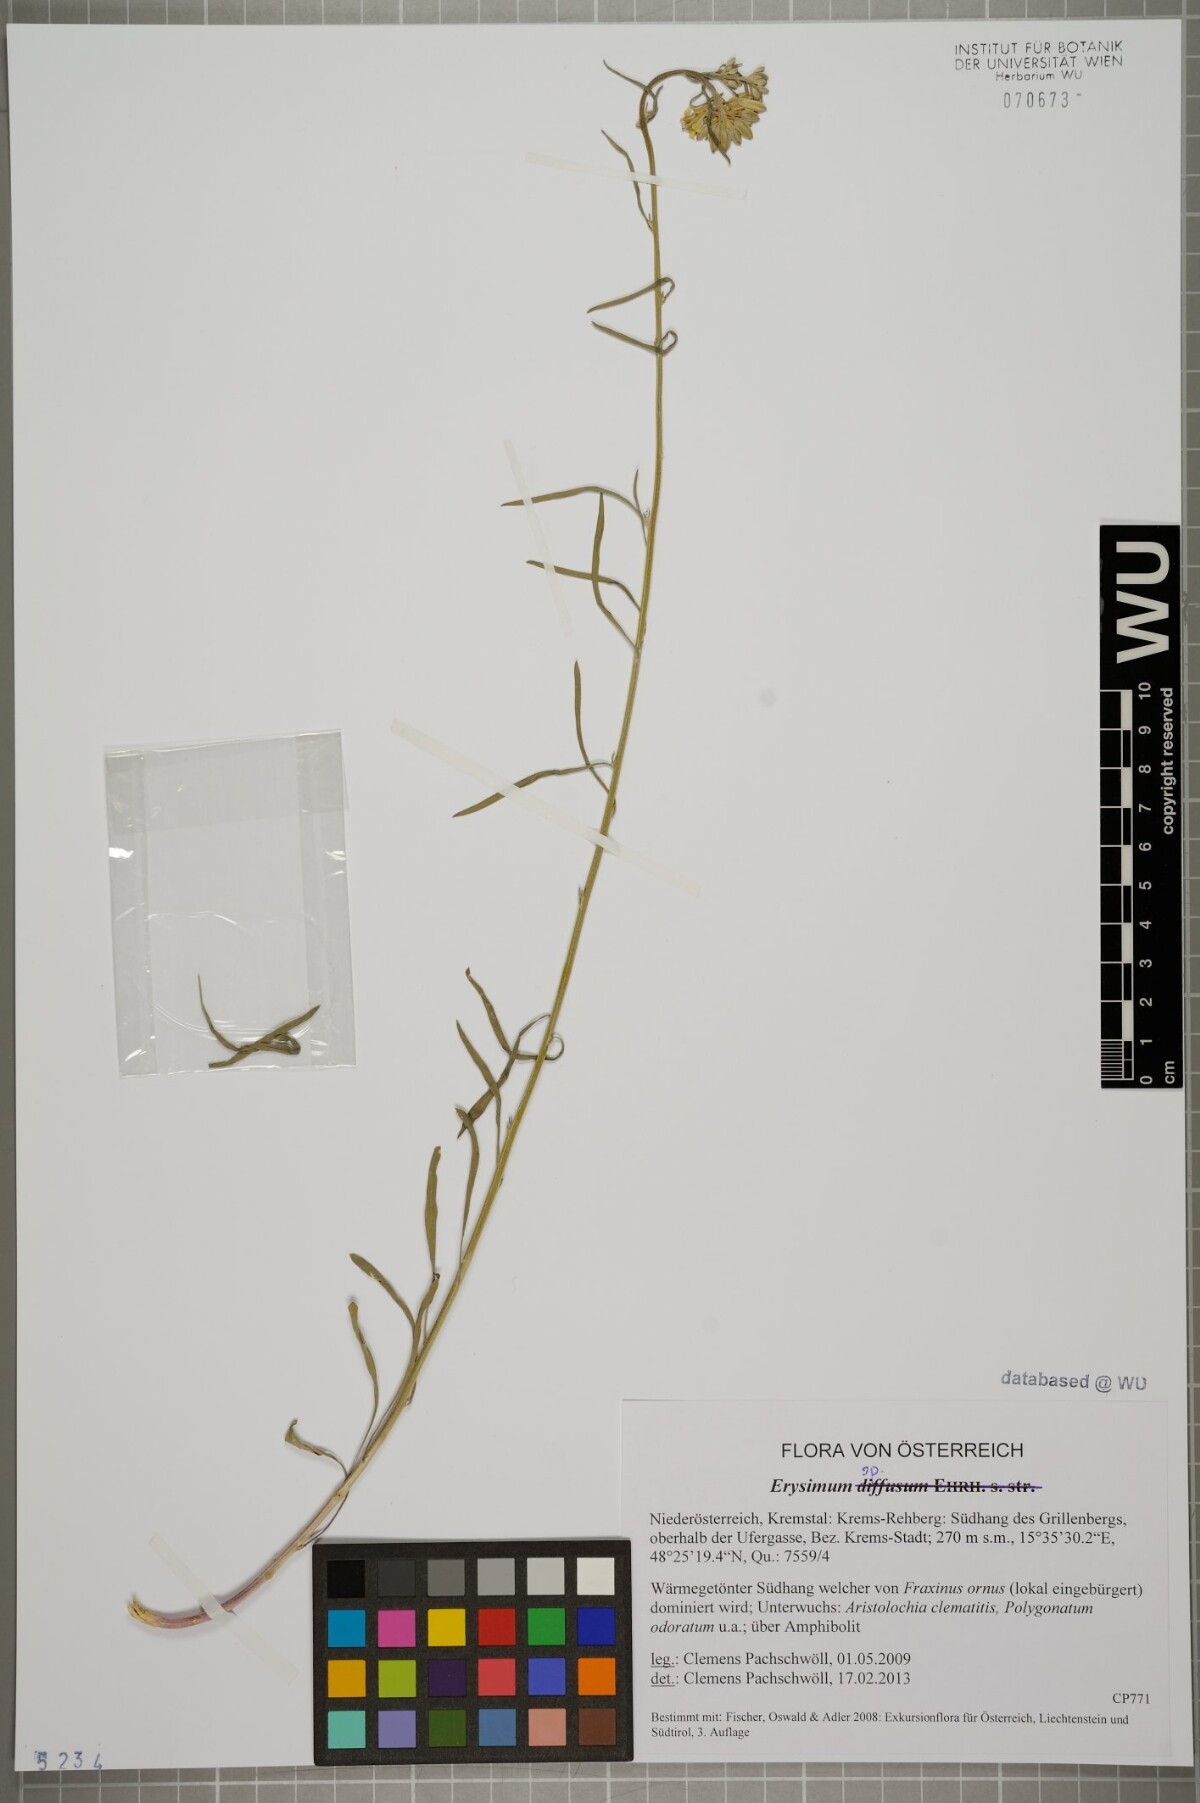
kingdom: Plantae
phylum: Tracheophyta
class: Magnoliopsida
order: Brassicales
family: Brassicaceae
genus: Erysimum
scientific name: Erysimum
